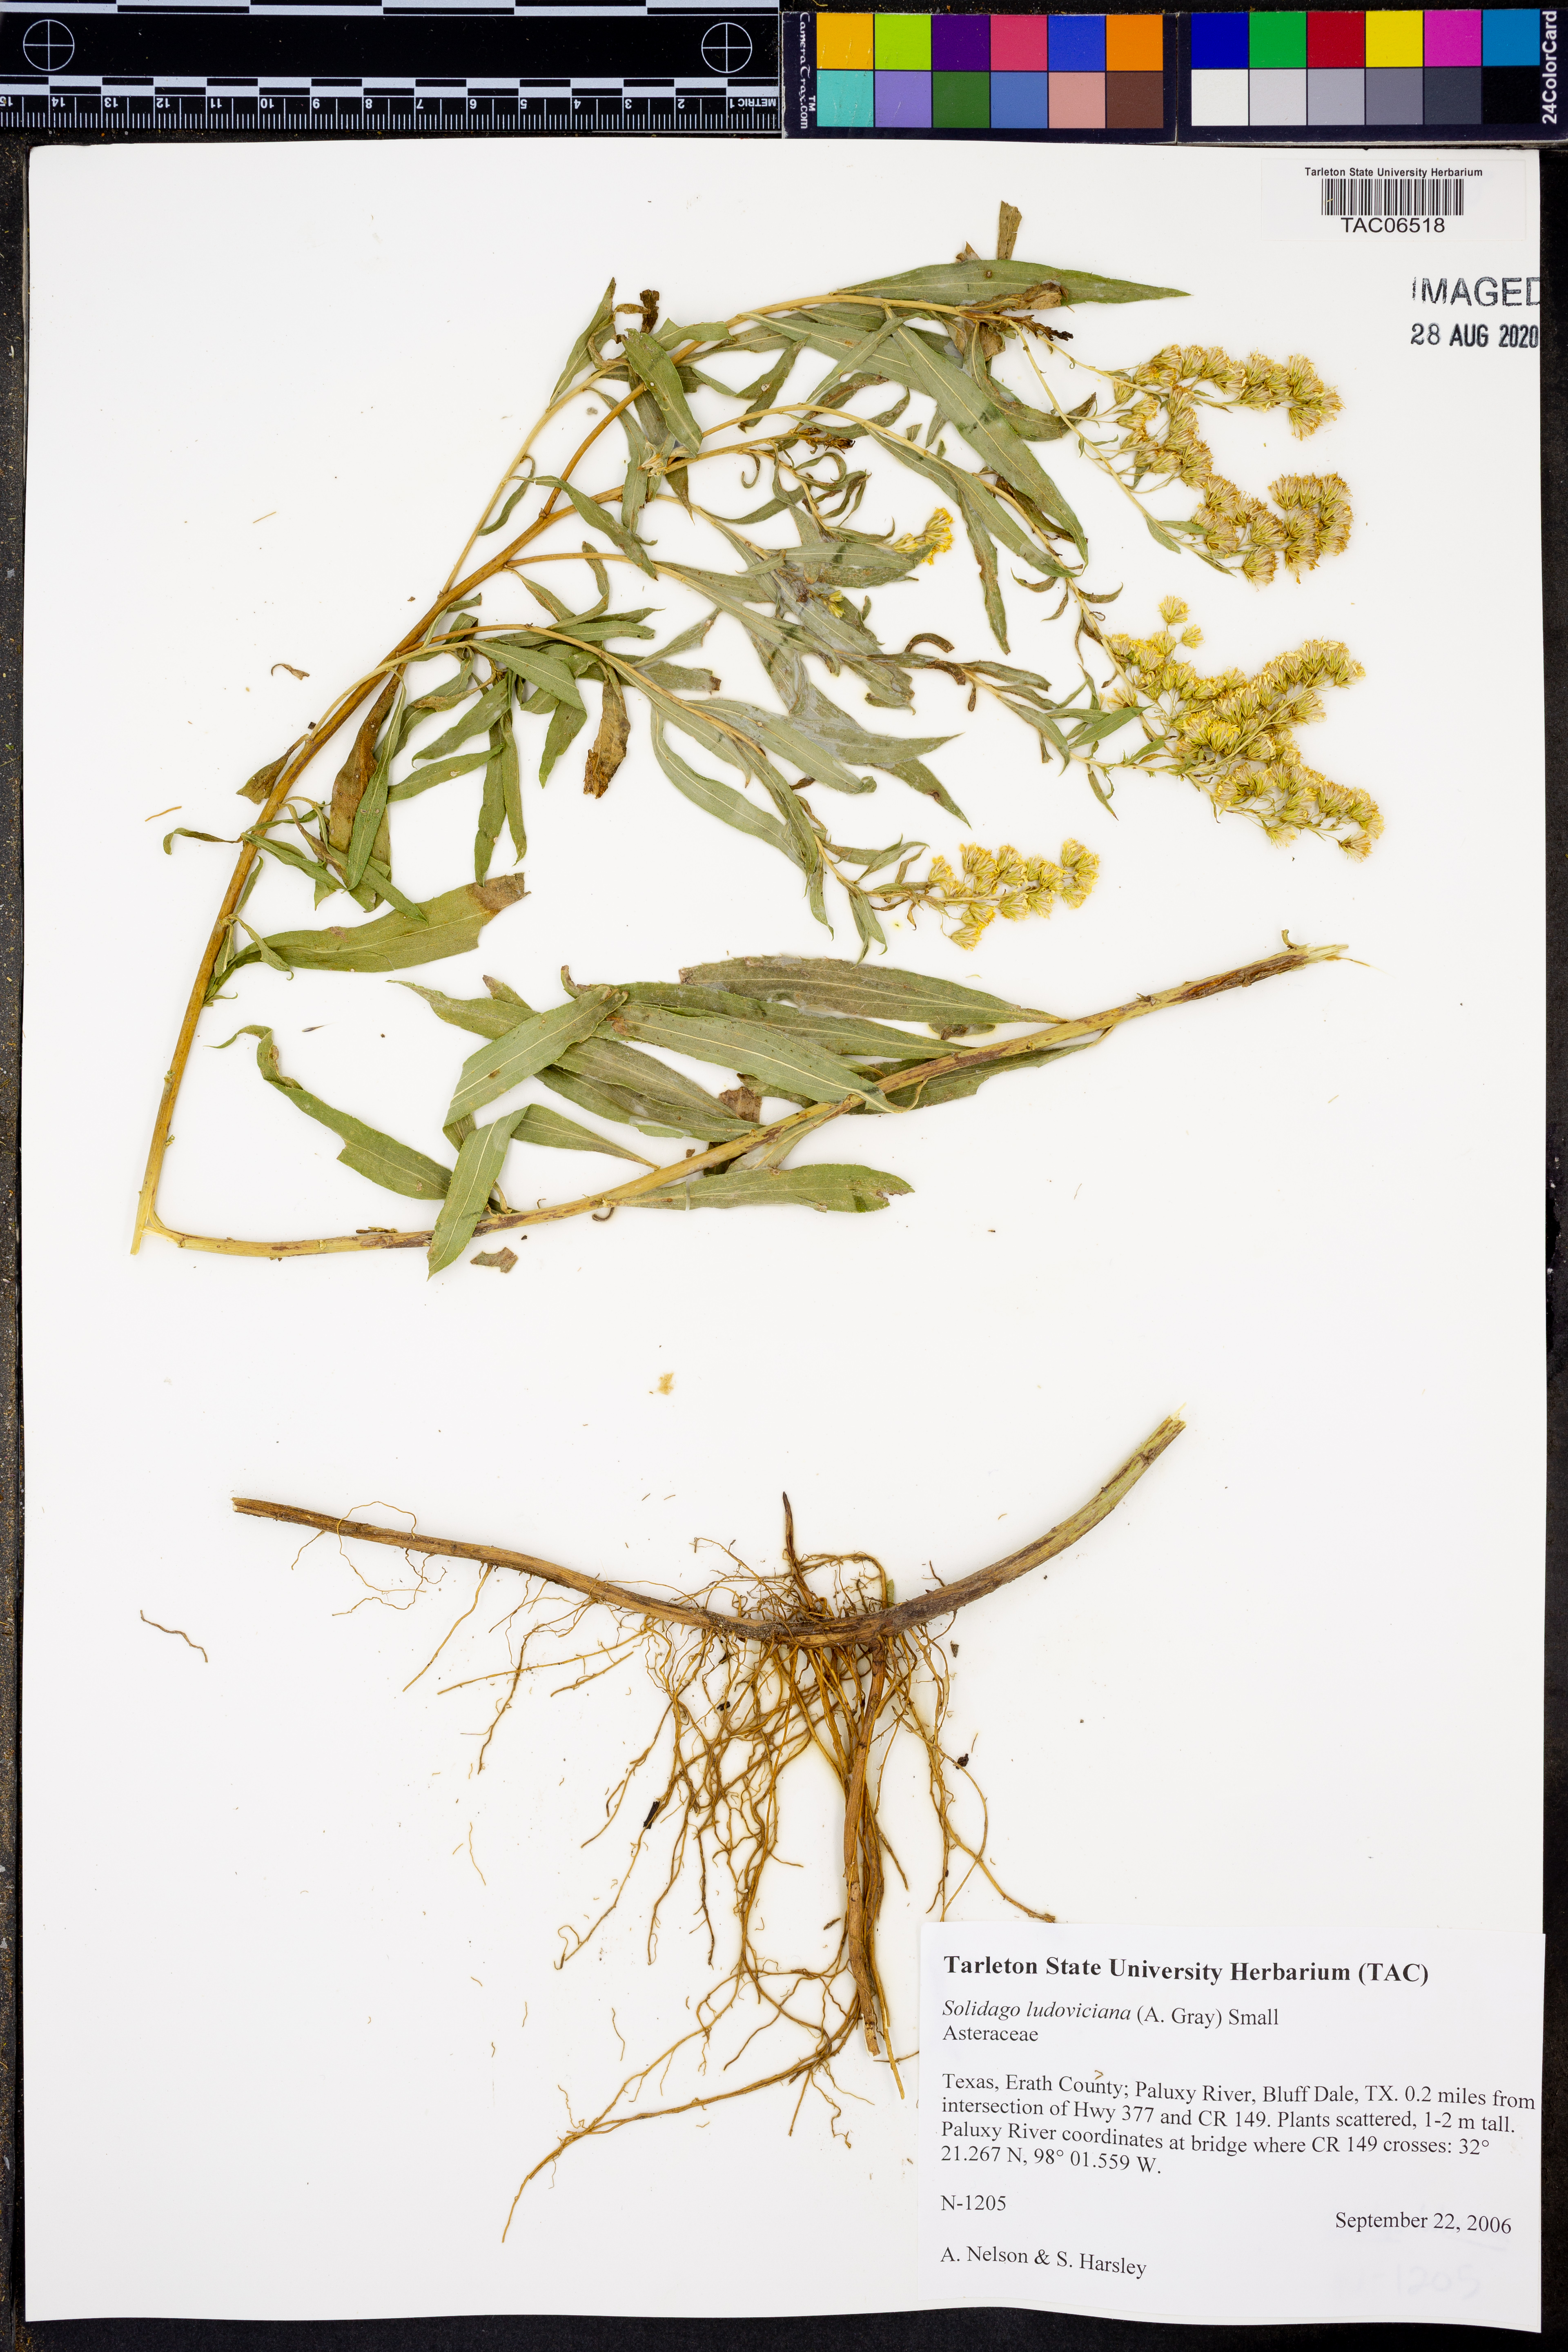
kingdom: Plantae
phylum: Tracheophyta
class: Magnoliopsida
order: Asterales
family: Asteraceae
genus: Solidago
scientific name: Solidago ludoviciana
